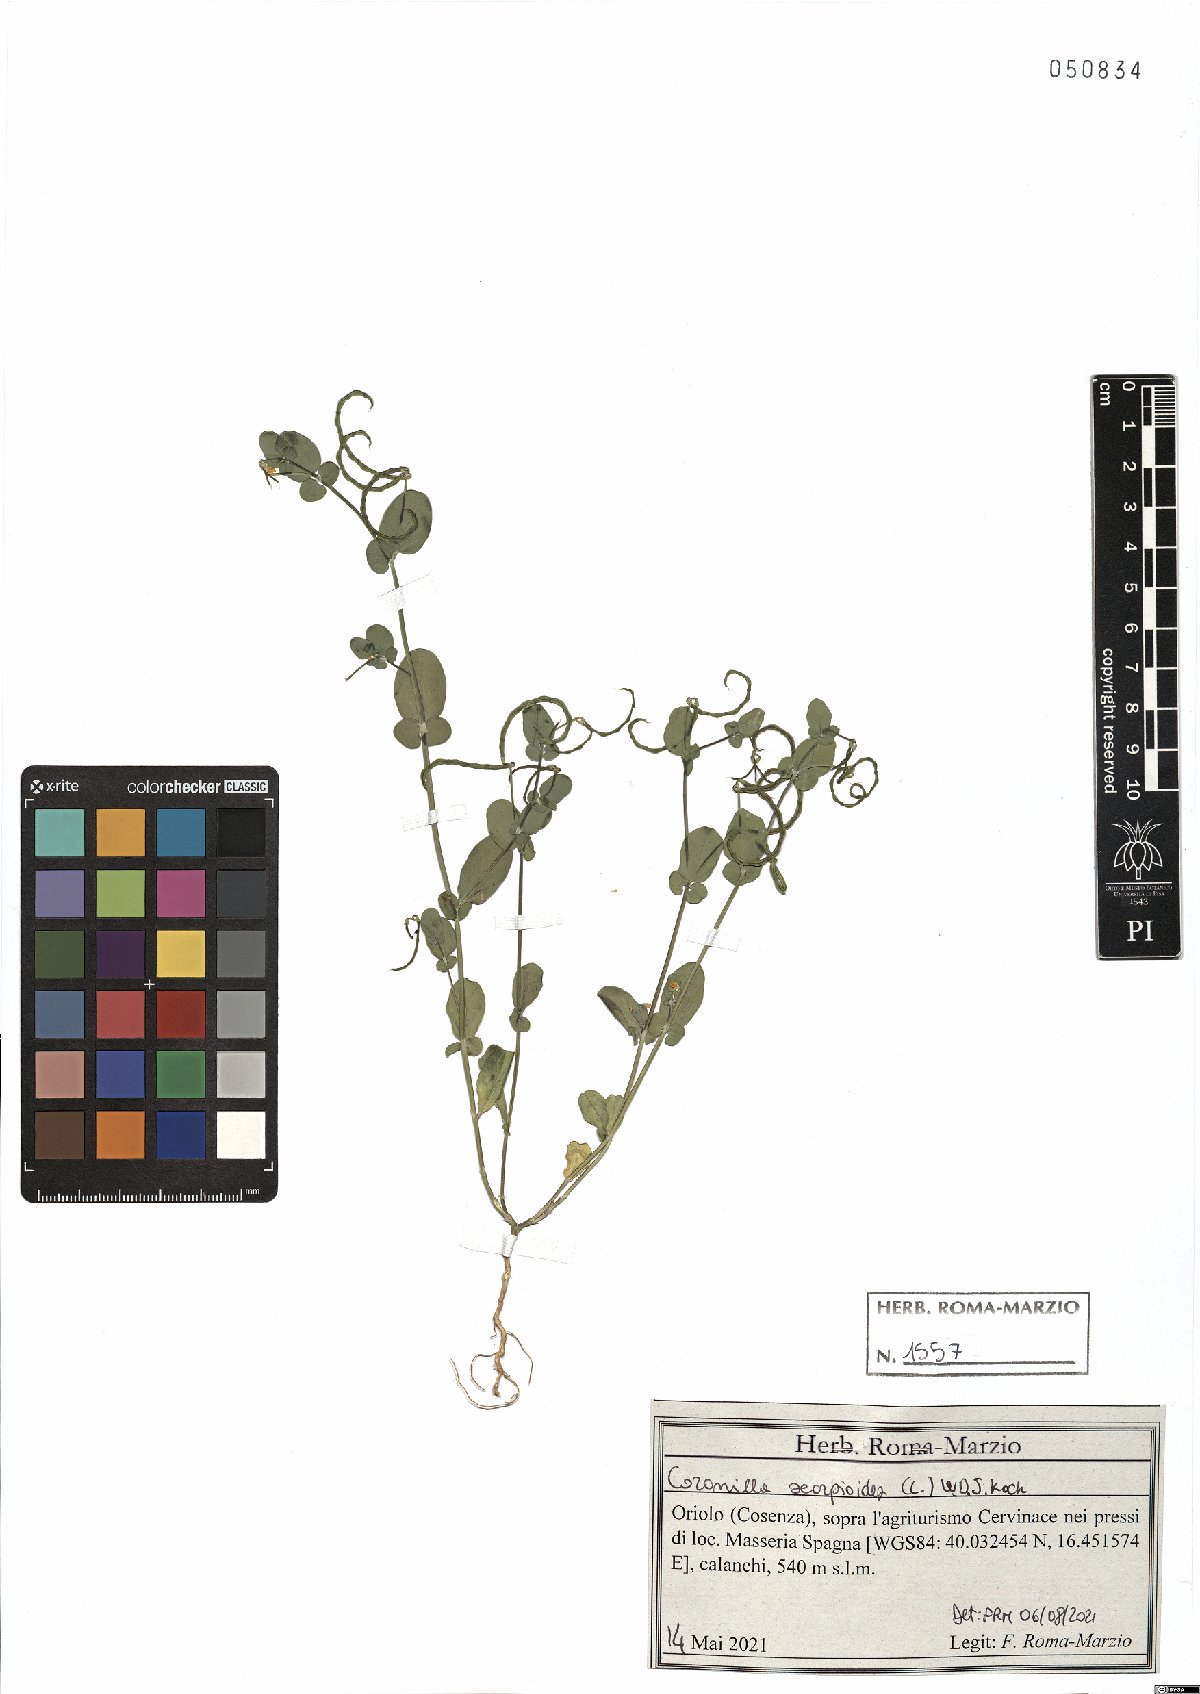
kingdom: Plantae
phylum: Tracheophyta
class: Magnoliopsida
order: Fabales
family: Fabaceae
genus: Coronilla
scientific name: Coronilla scorpioides
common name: Annual scorpion-vetch
